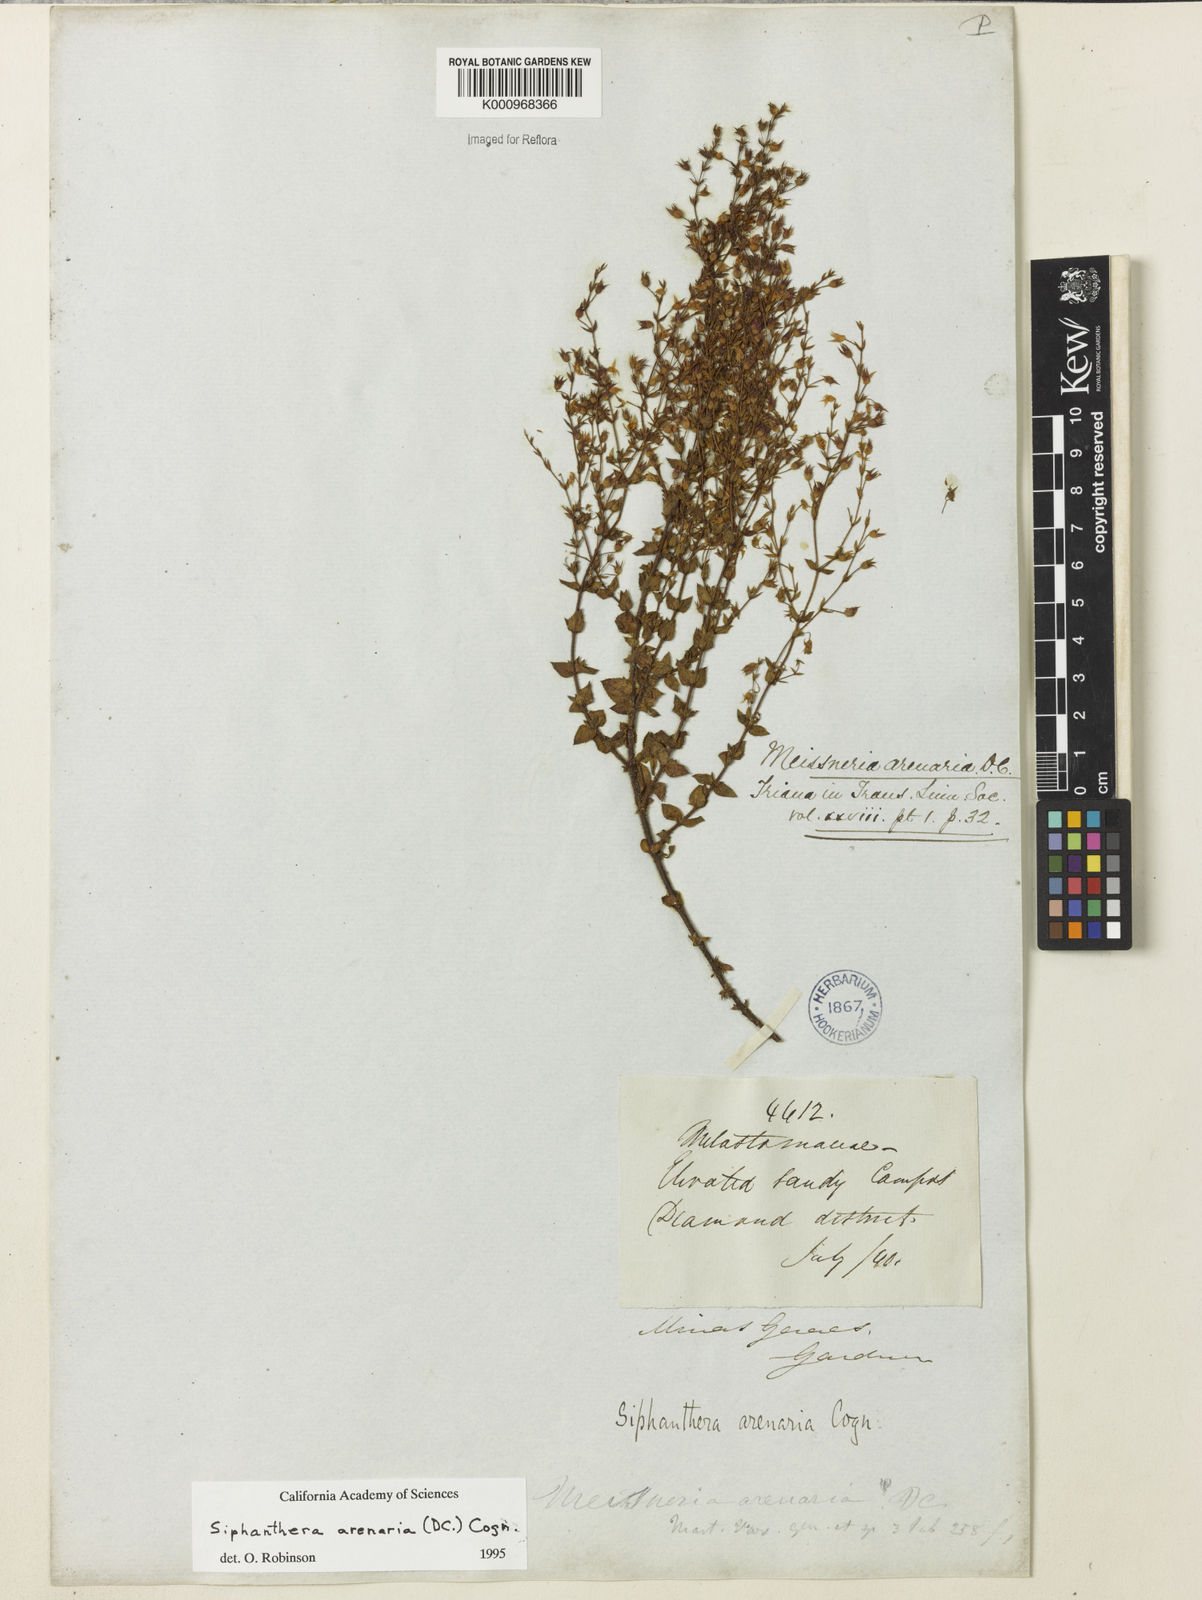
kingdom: Plantae
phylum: Tracheophyta
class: Magnoliopsida
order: Myrtales
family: Melastomataceae
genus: Siphanthera
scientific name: Siphanthera arenaria
